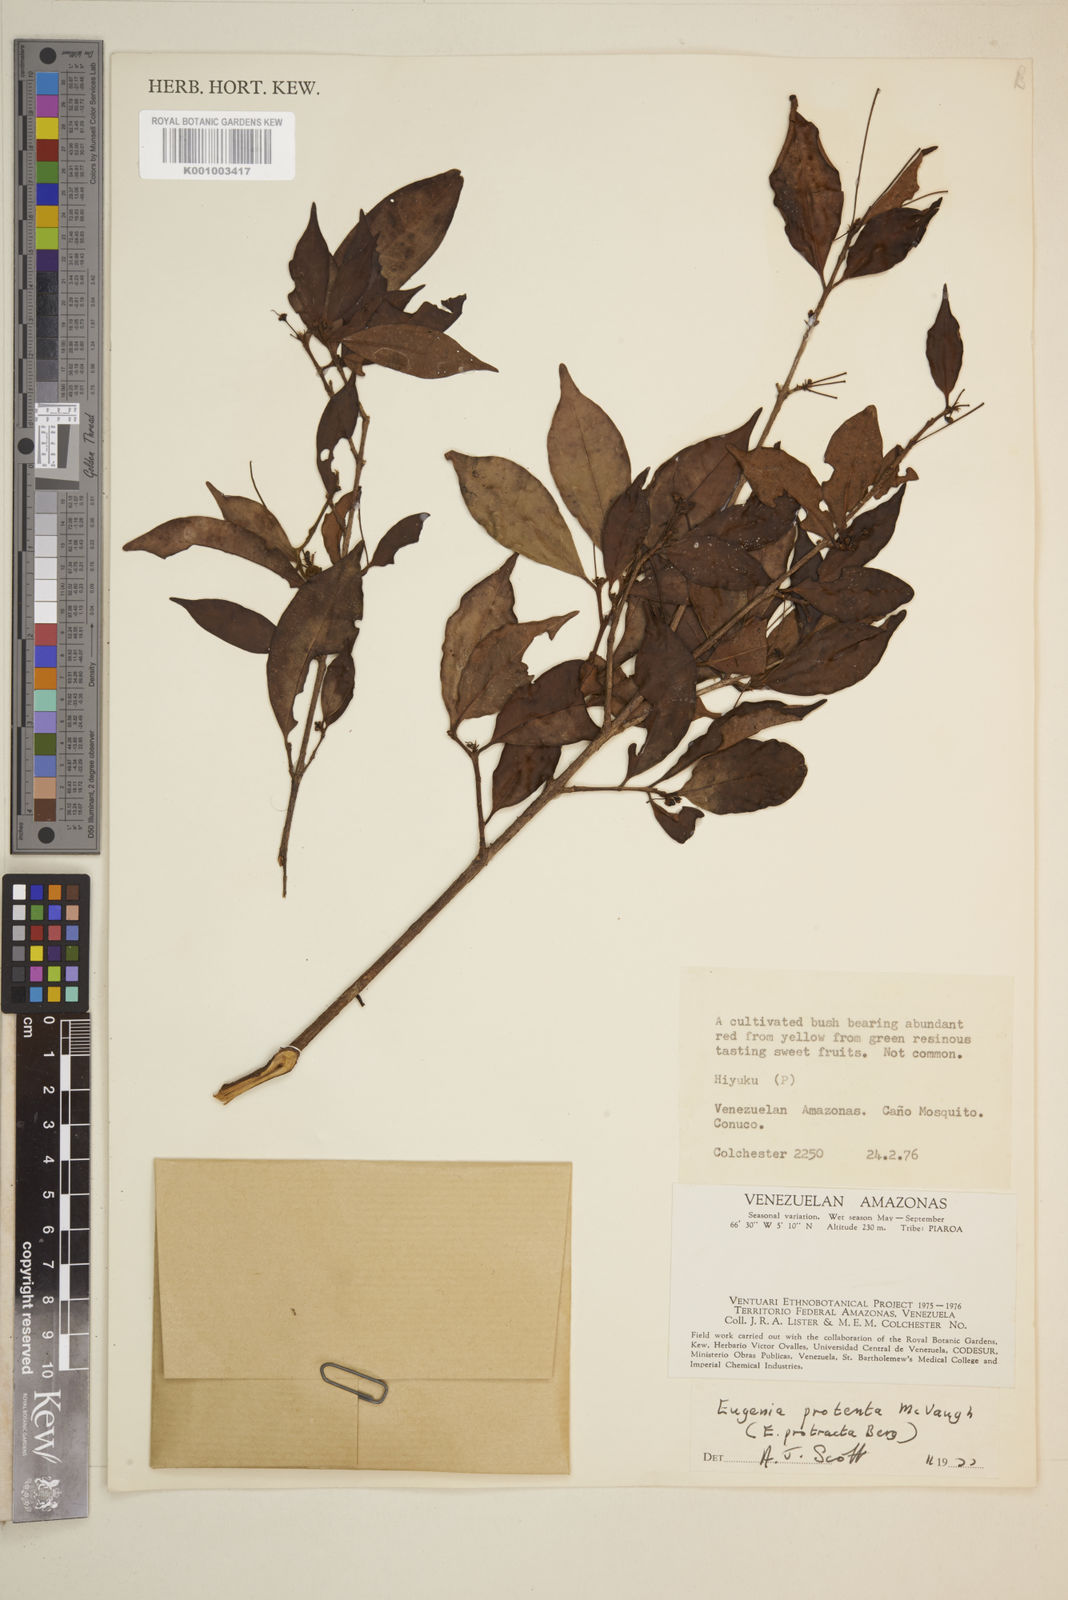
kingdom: Plantae
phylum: Tracheophyta
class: Magnoliopsida
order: Myrtales
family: Myrtaceae
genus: Eugenia
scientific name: Eugenia protenta
